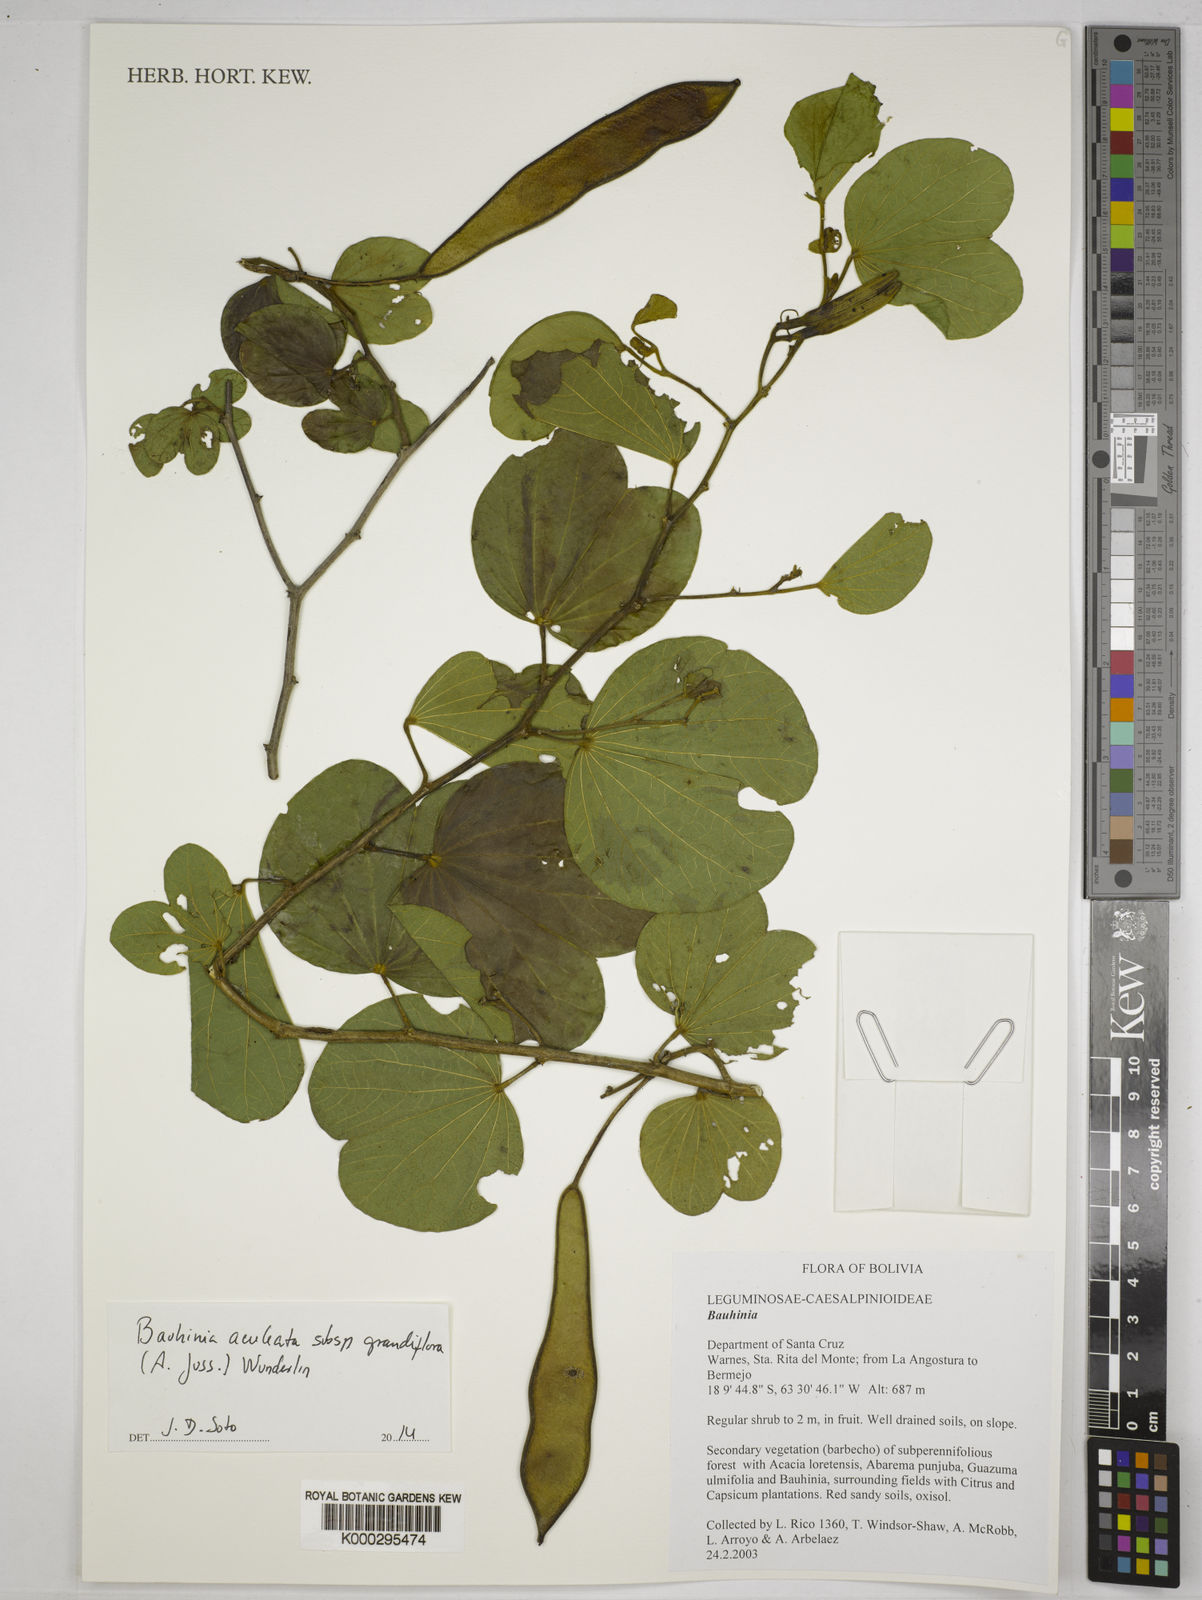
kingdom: Plantae
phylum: Tracheophyta
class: Magnoliopsida
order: Fabales
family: Fabaceae
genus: Bauhinia
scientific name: Bauhinia
